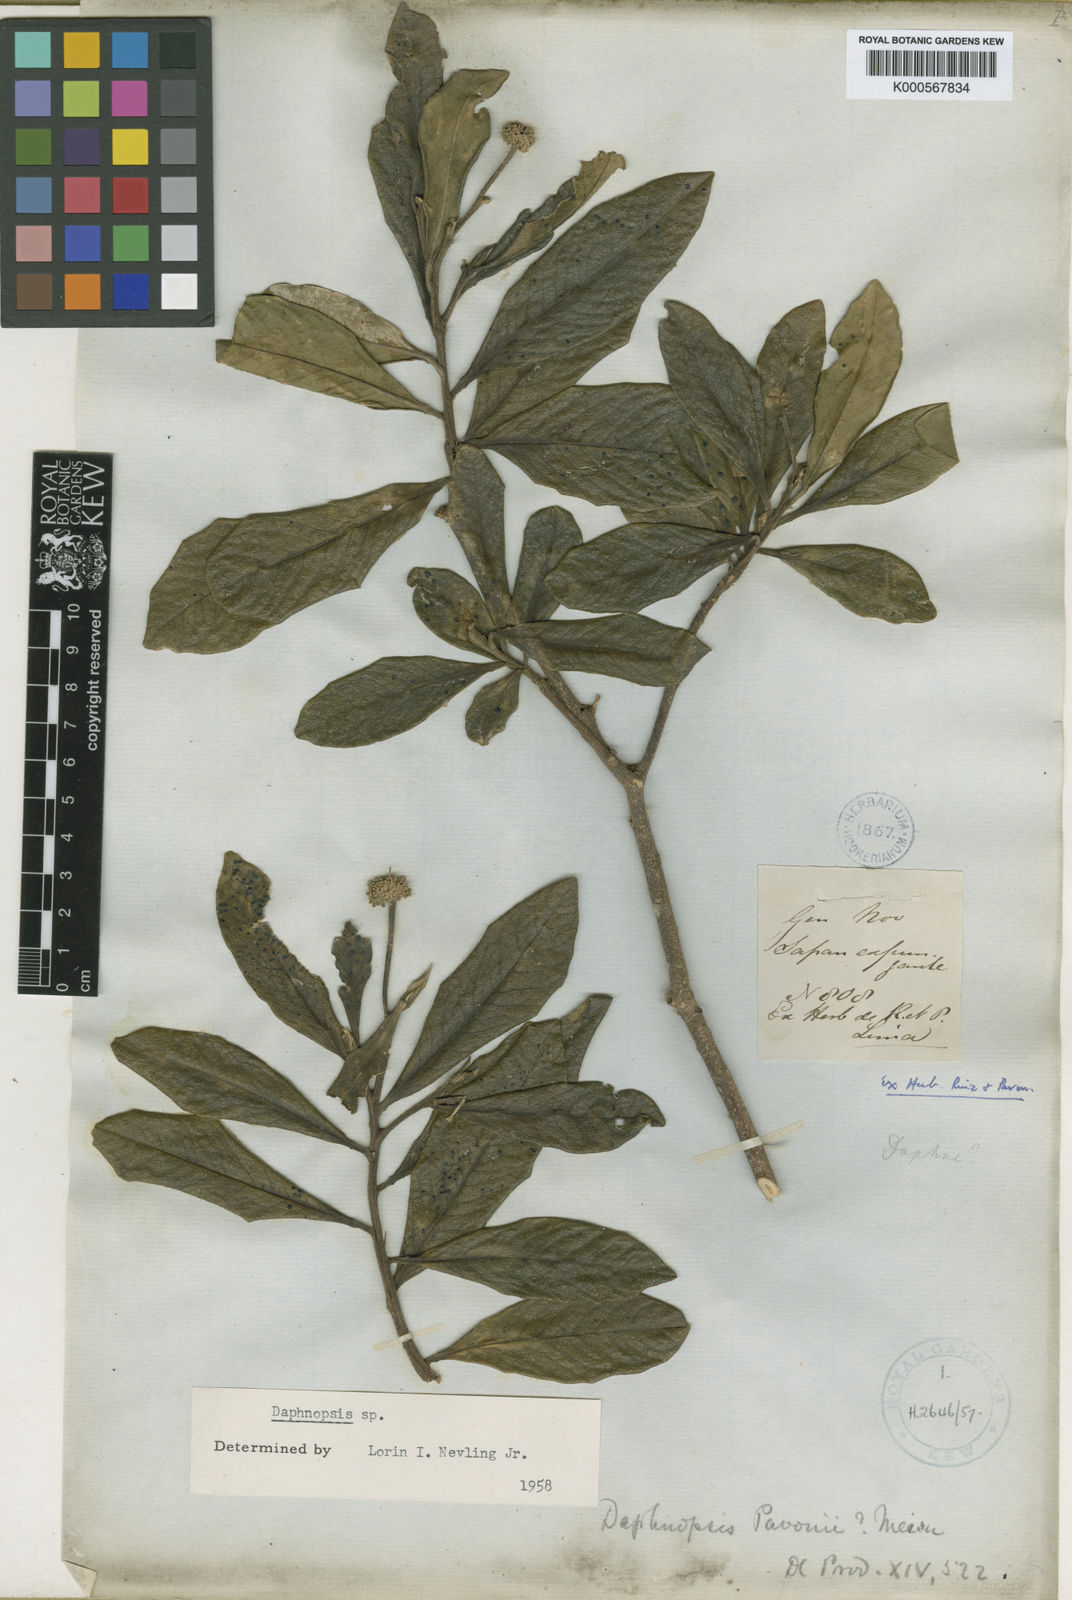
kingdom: Plantae
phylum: Tracheophyta
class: Magnoliopsida
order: Malvales
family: Thymelaeaceae
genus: Daphnopsis
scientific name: Daphnopsis pavonii
